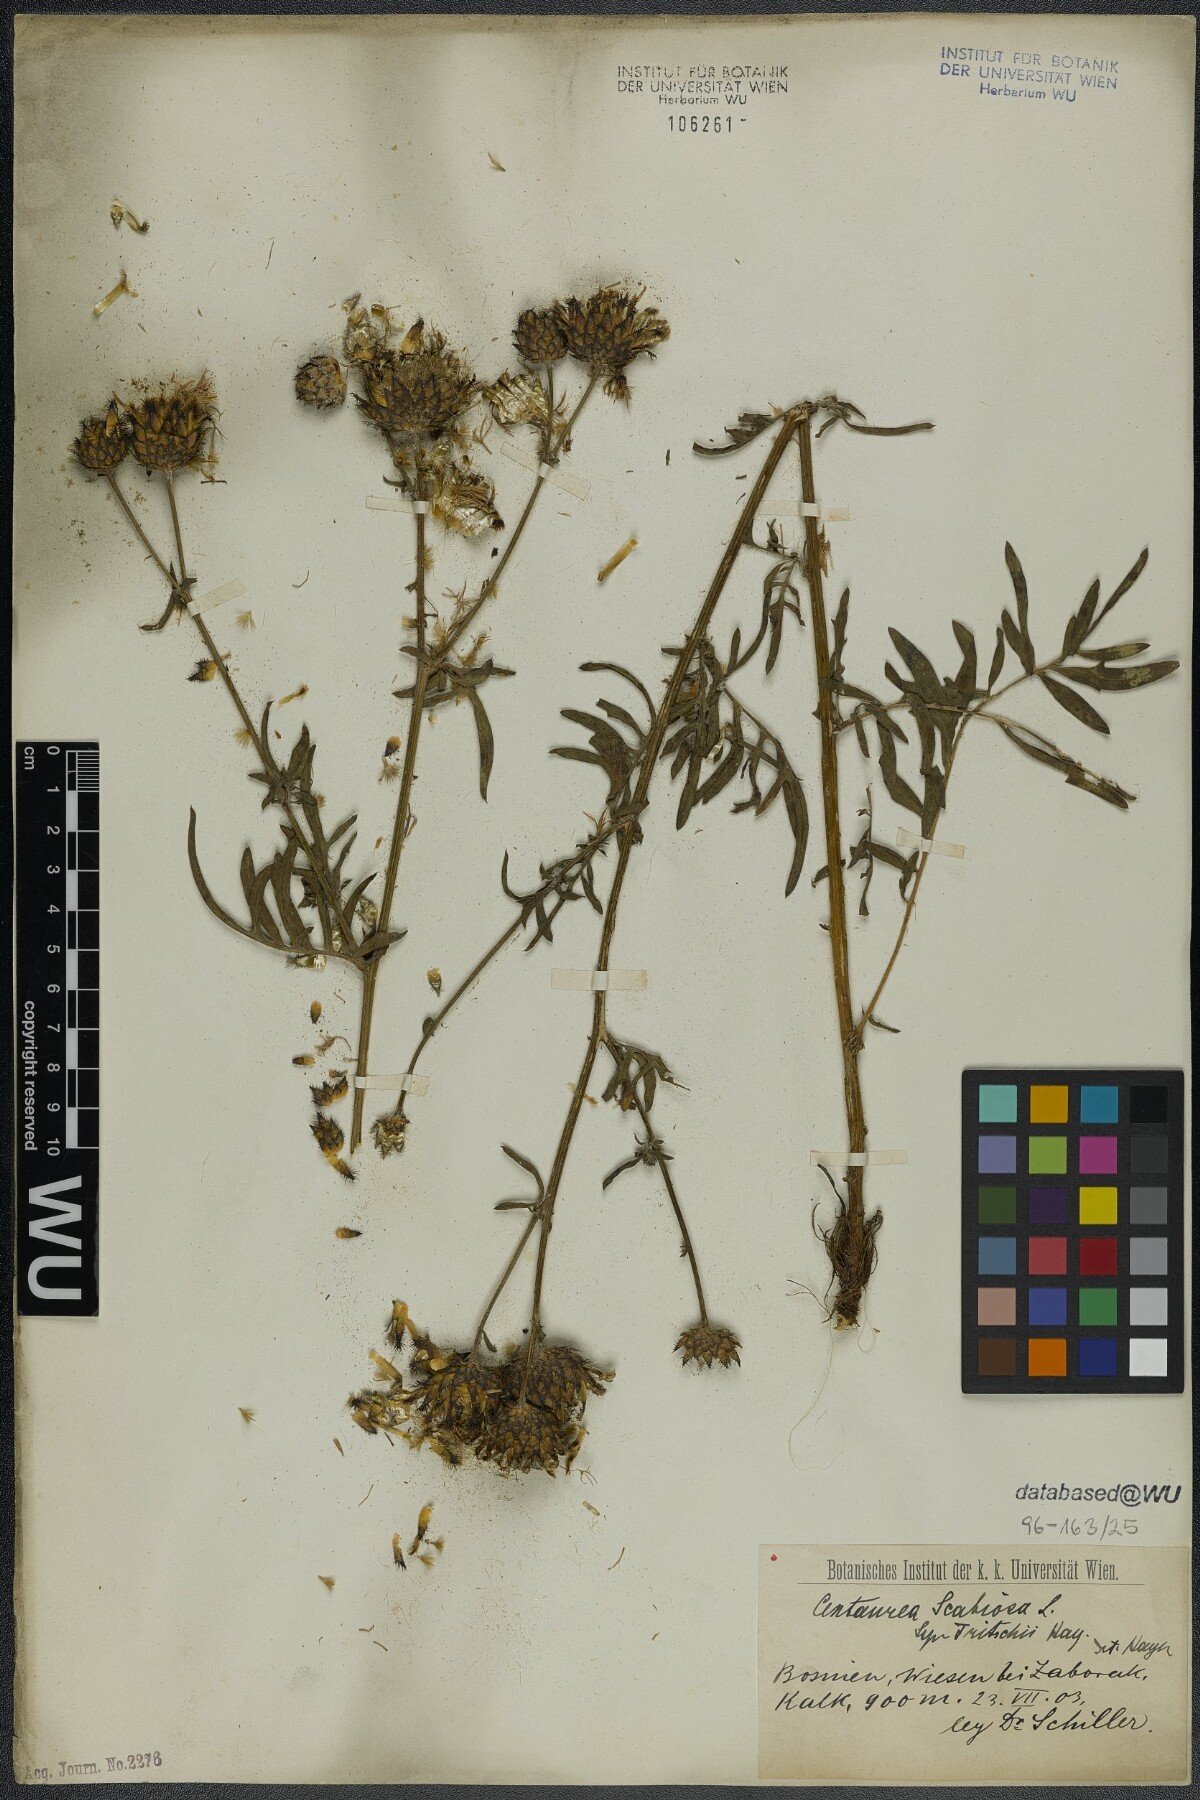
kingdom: Plantae
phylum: Tracheophyta
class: Magnoliopsida
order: Asterales
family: Asteraceae
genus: Centaurea
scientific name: Centaurea scabiosa
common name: Greater knapweed
